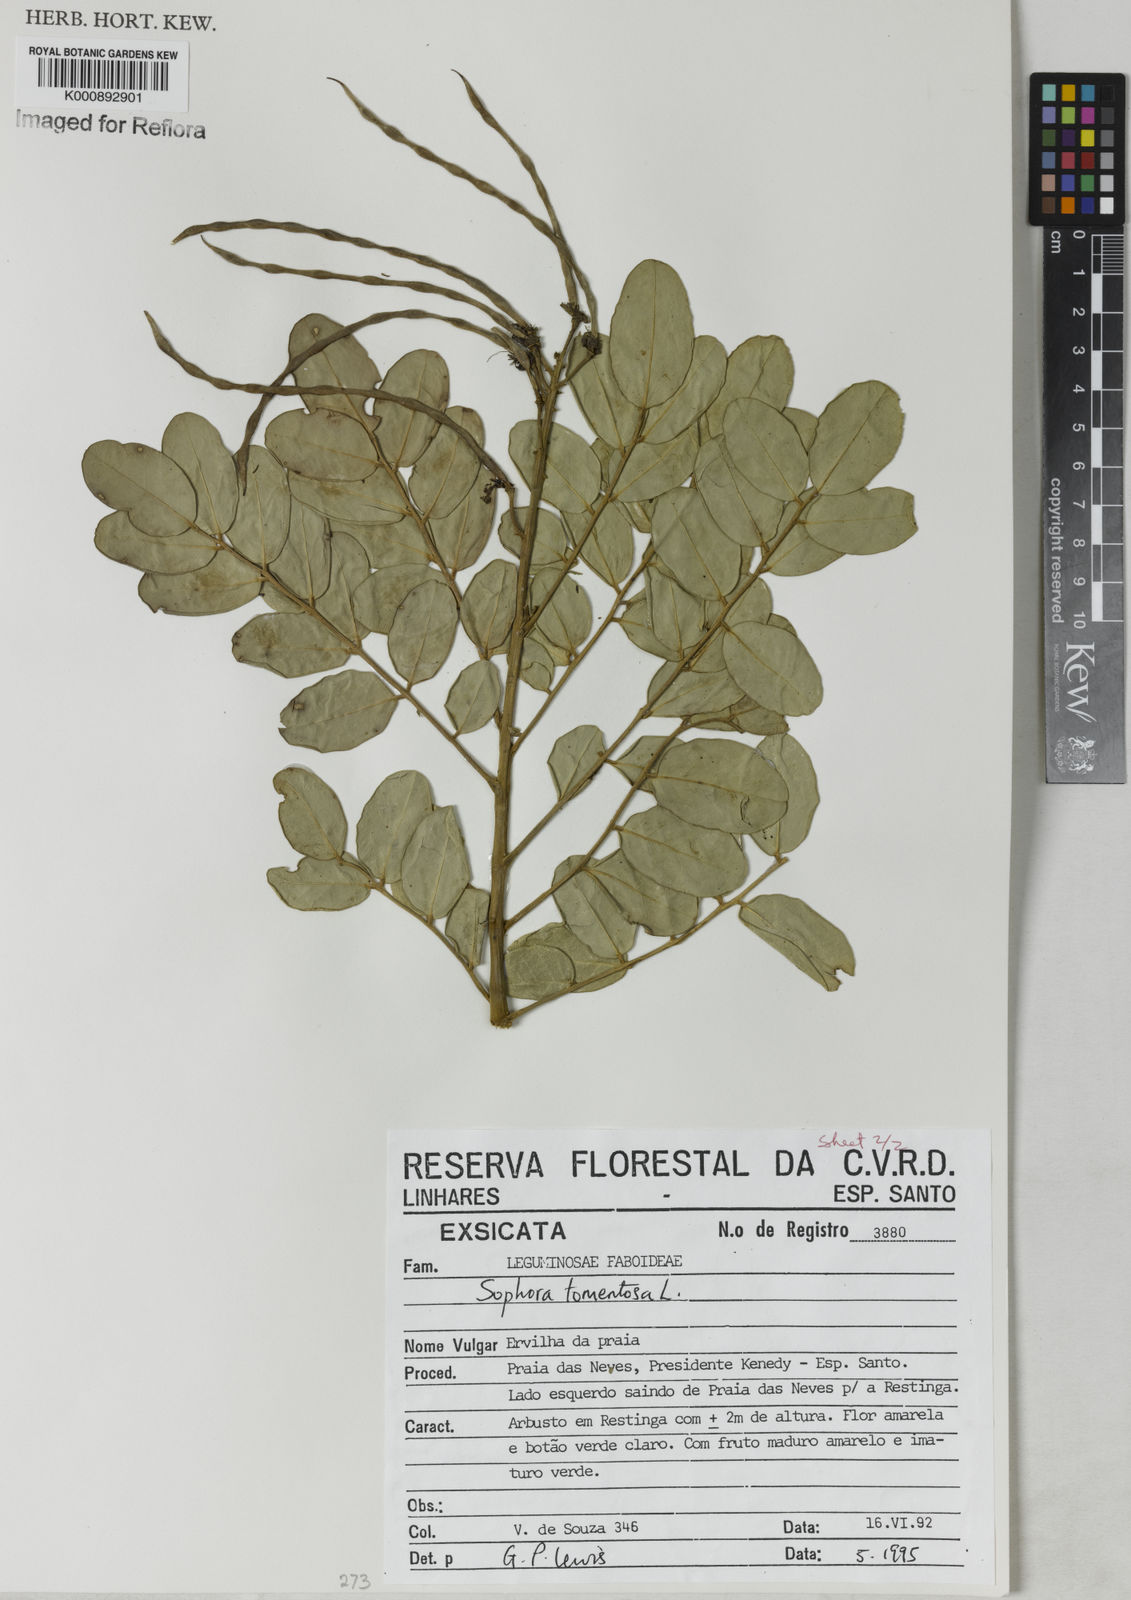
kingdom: Plantae
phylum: Tracheophyta
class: Magnoliopsida
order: Fabales
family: Fabaceae
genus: Sophora
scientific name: Sophora tomentosa
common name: Yellow necklacepod
